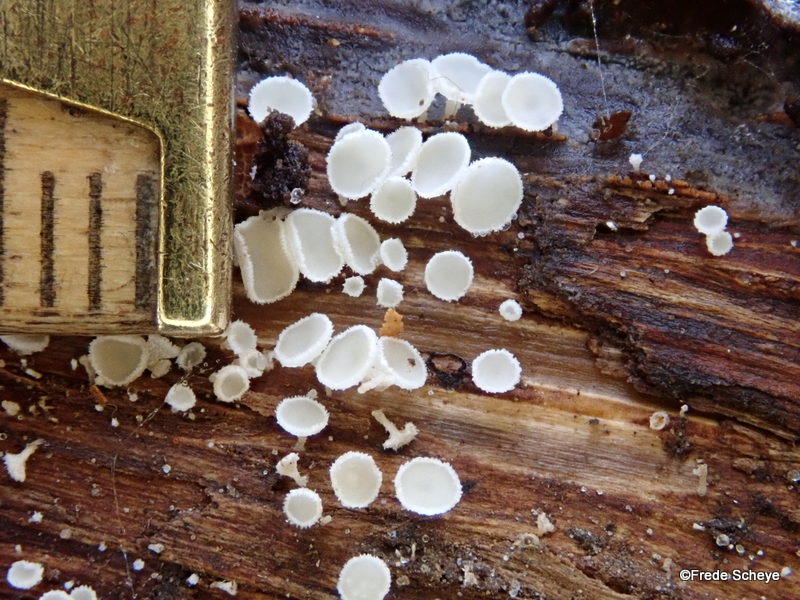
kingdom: Fungi
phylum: Ascomycota
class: Leotiomycetes
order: Helotiales
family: Lachnaceae
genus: Dasyscyphella
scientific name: Dasyscyphella nivea
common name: hvid frynseskive
